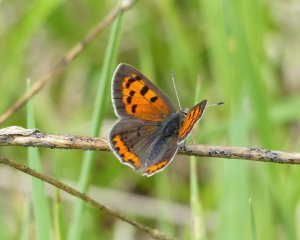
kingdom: Animalia
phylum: Arthropoda
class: Insecta
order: Lepidoptera
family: Lycaenidae
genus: Lycaena
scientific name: Lycaena phlaeas
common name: American Copper
